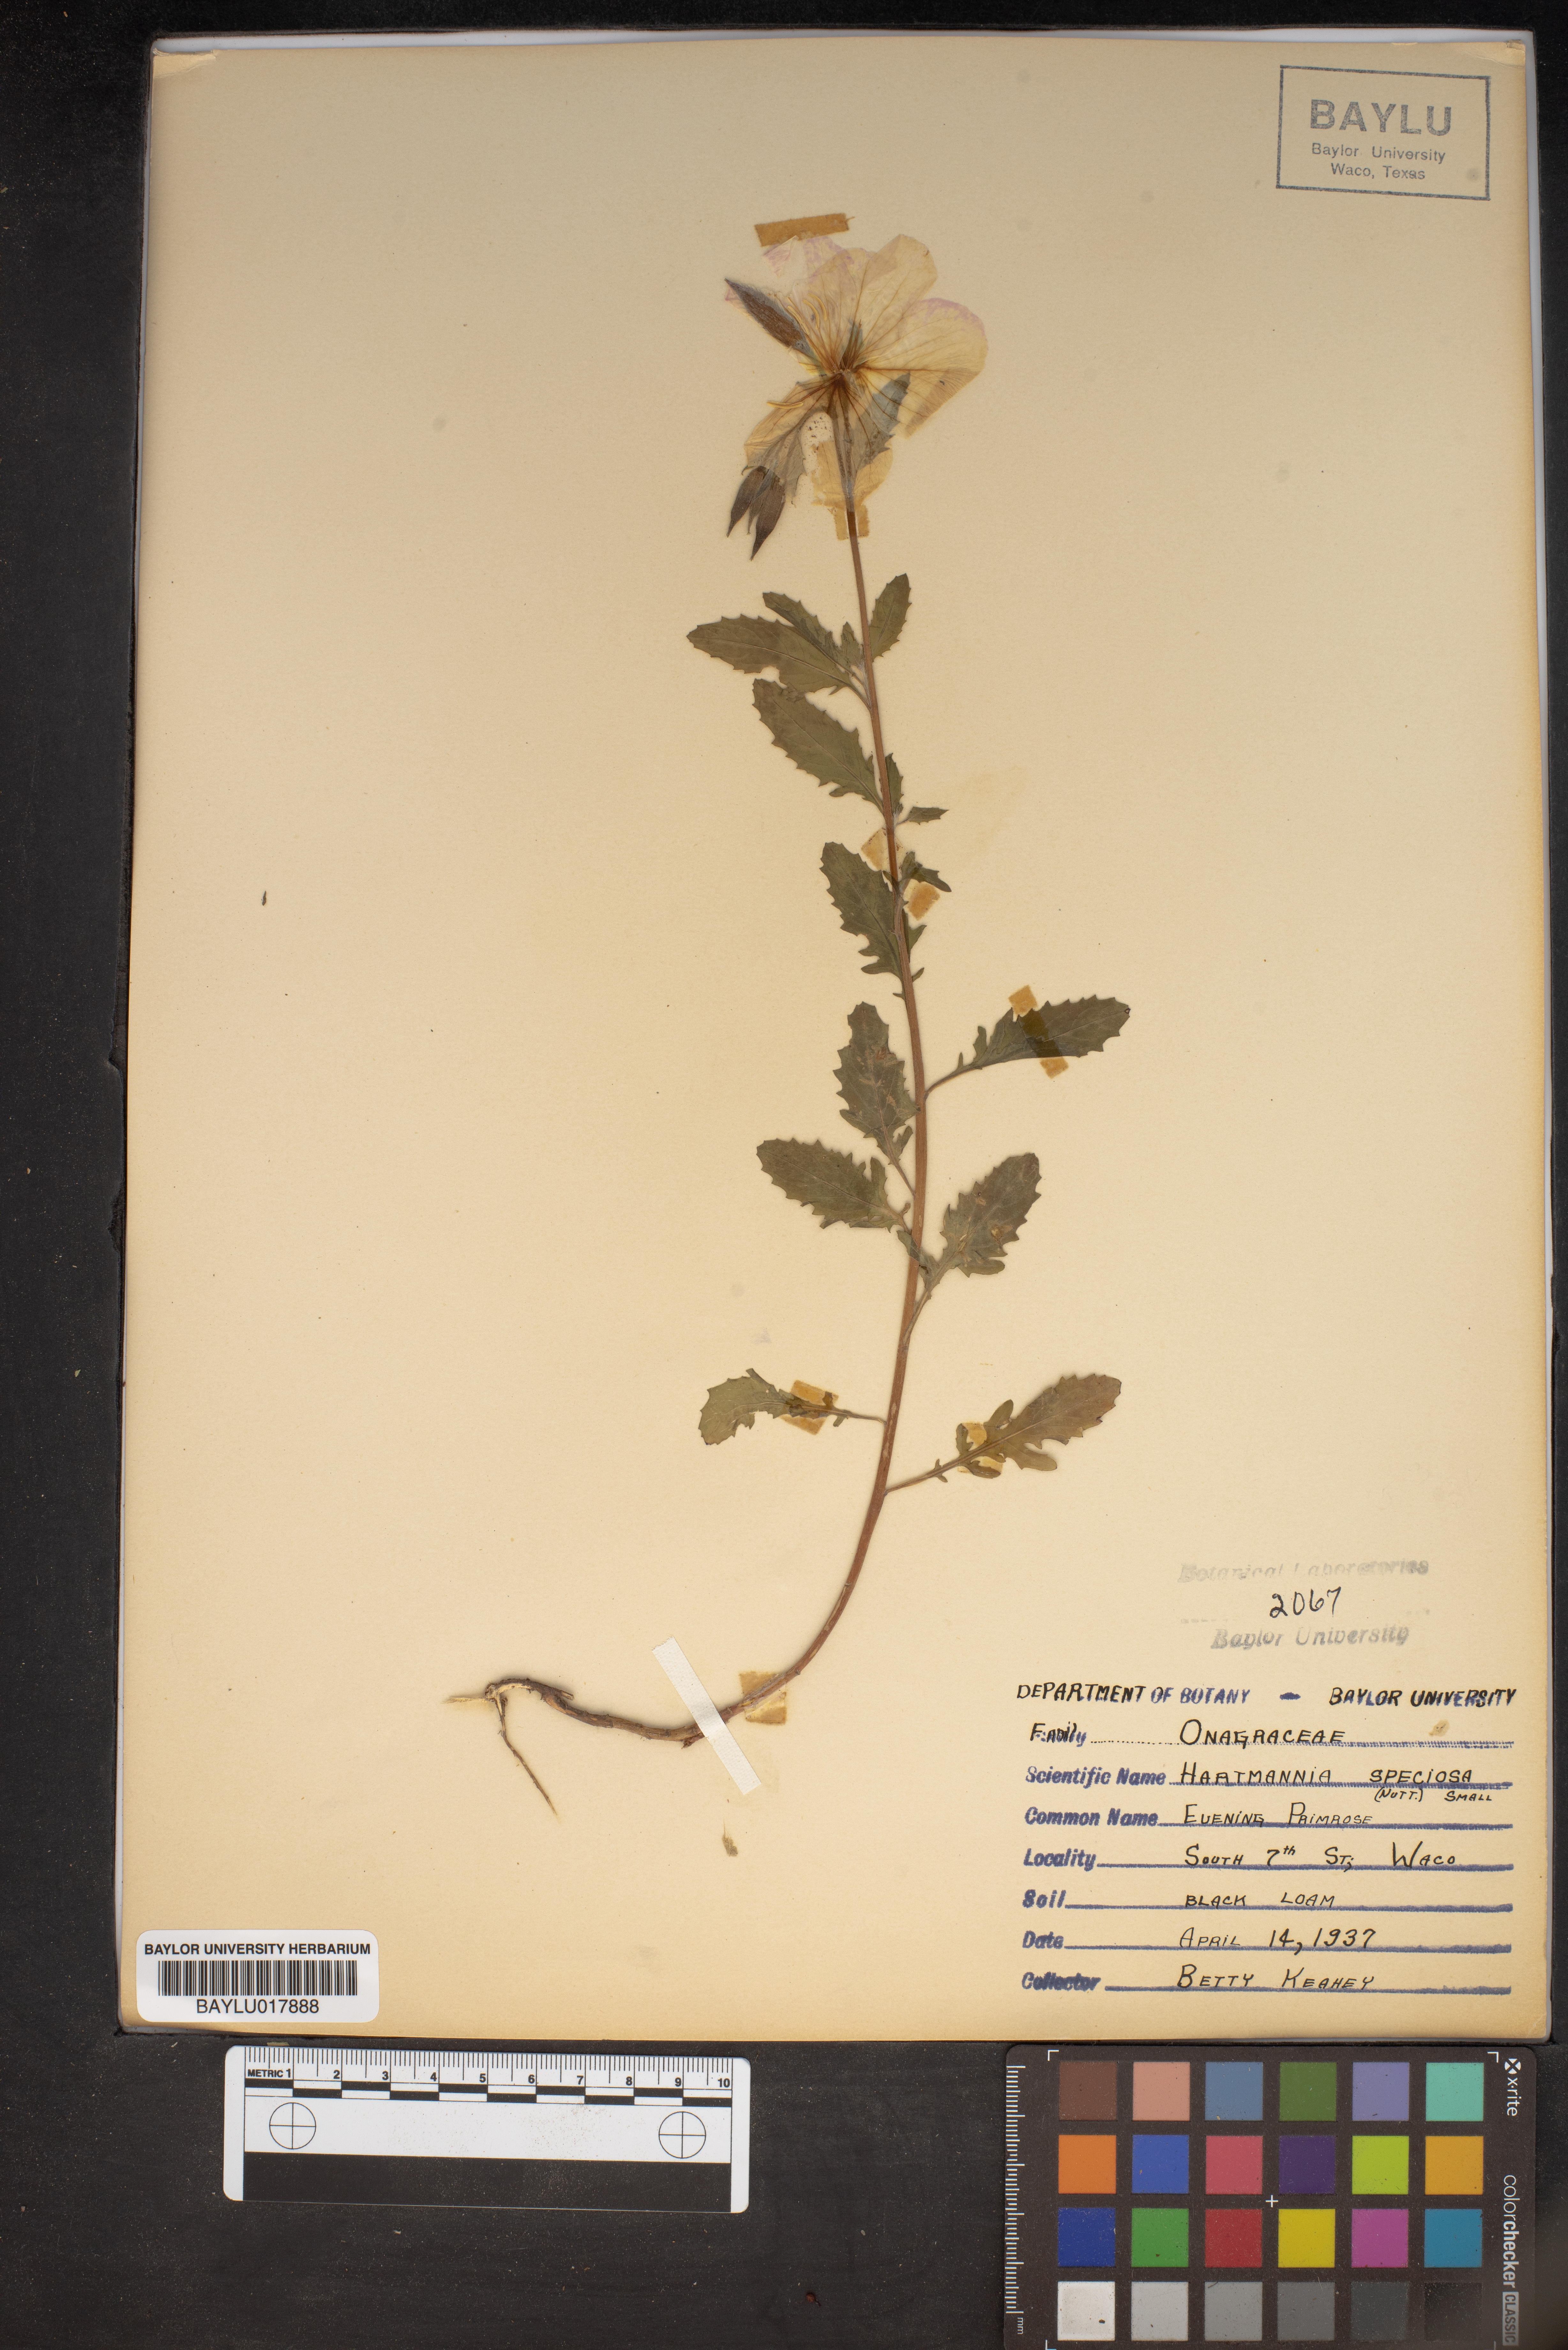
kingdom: Plantae
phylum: Tracheophyta
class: Magnoliopsida
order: Myrtales
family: Onagraceae
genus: Oenothera
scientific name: Oenothera speciosa
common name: White evening-primrose
